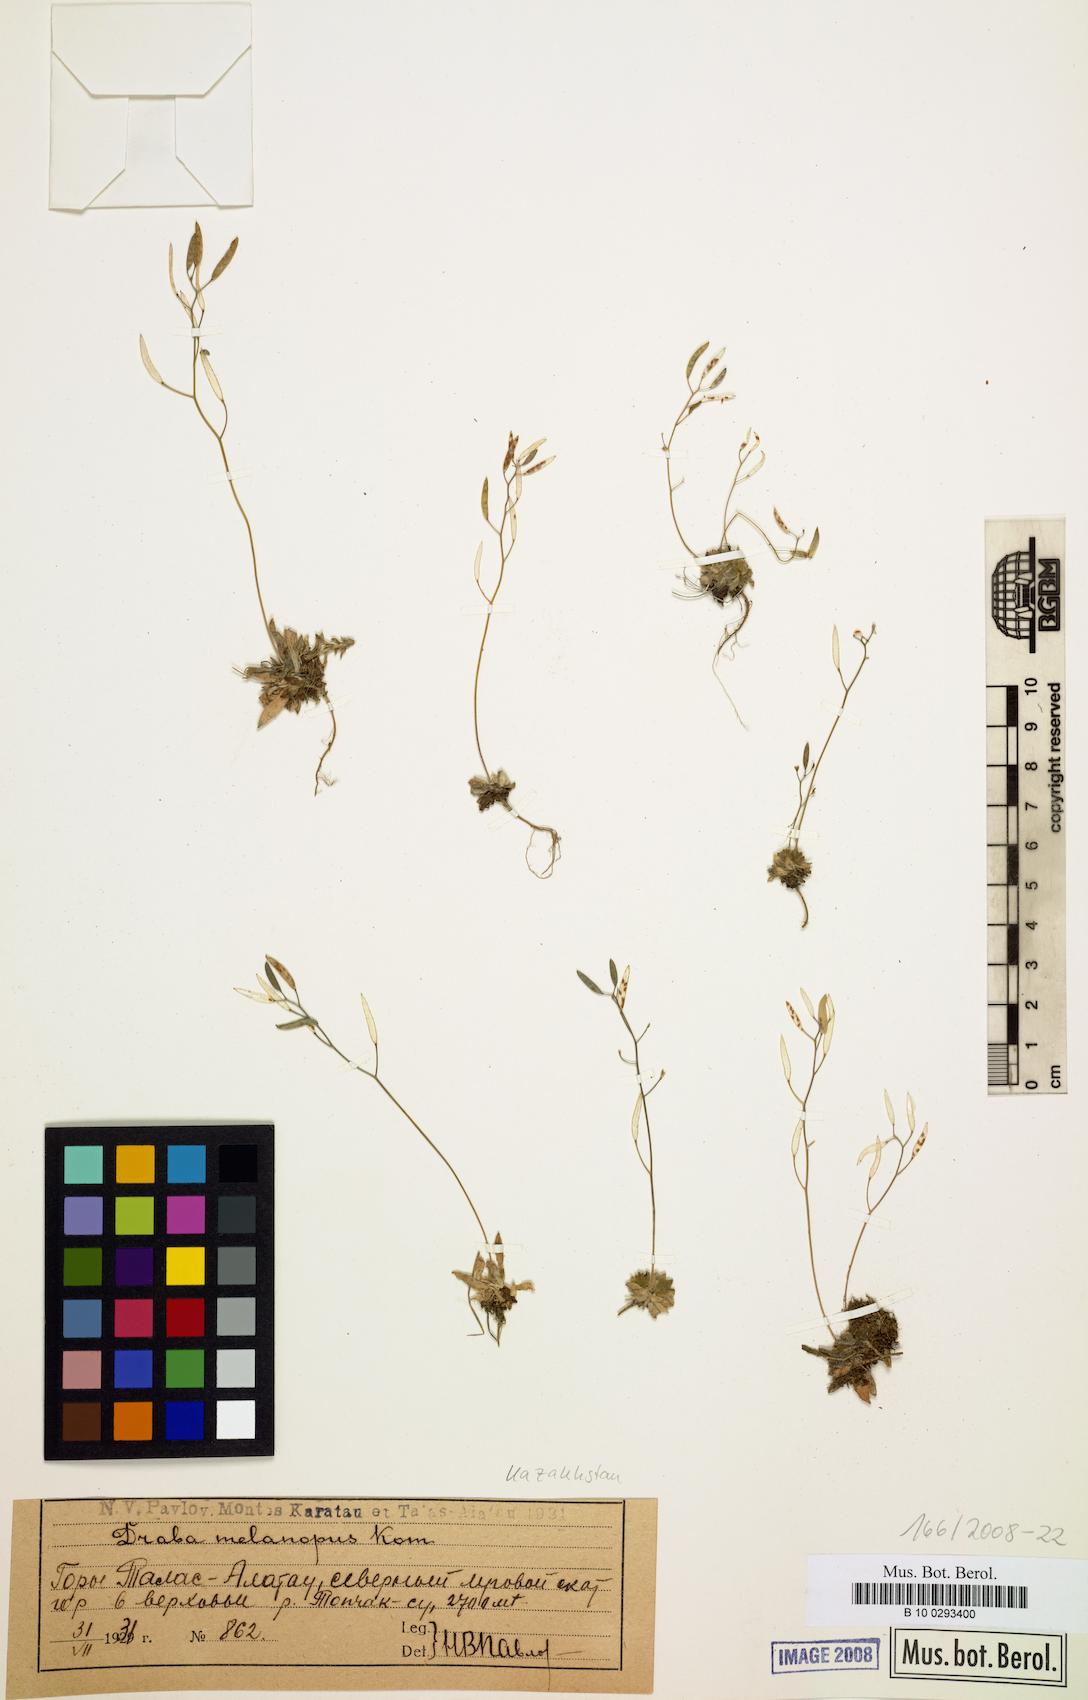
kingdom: Plantae
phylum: Tracheophyta
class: Magnoliopsida
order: Brassicales
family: Brassicaceae
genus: Draba
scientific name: Draba melanopus
